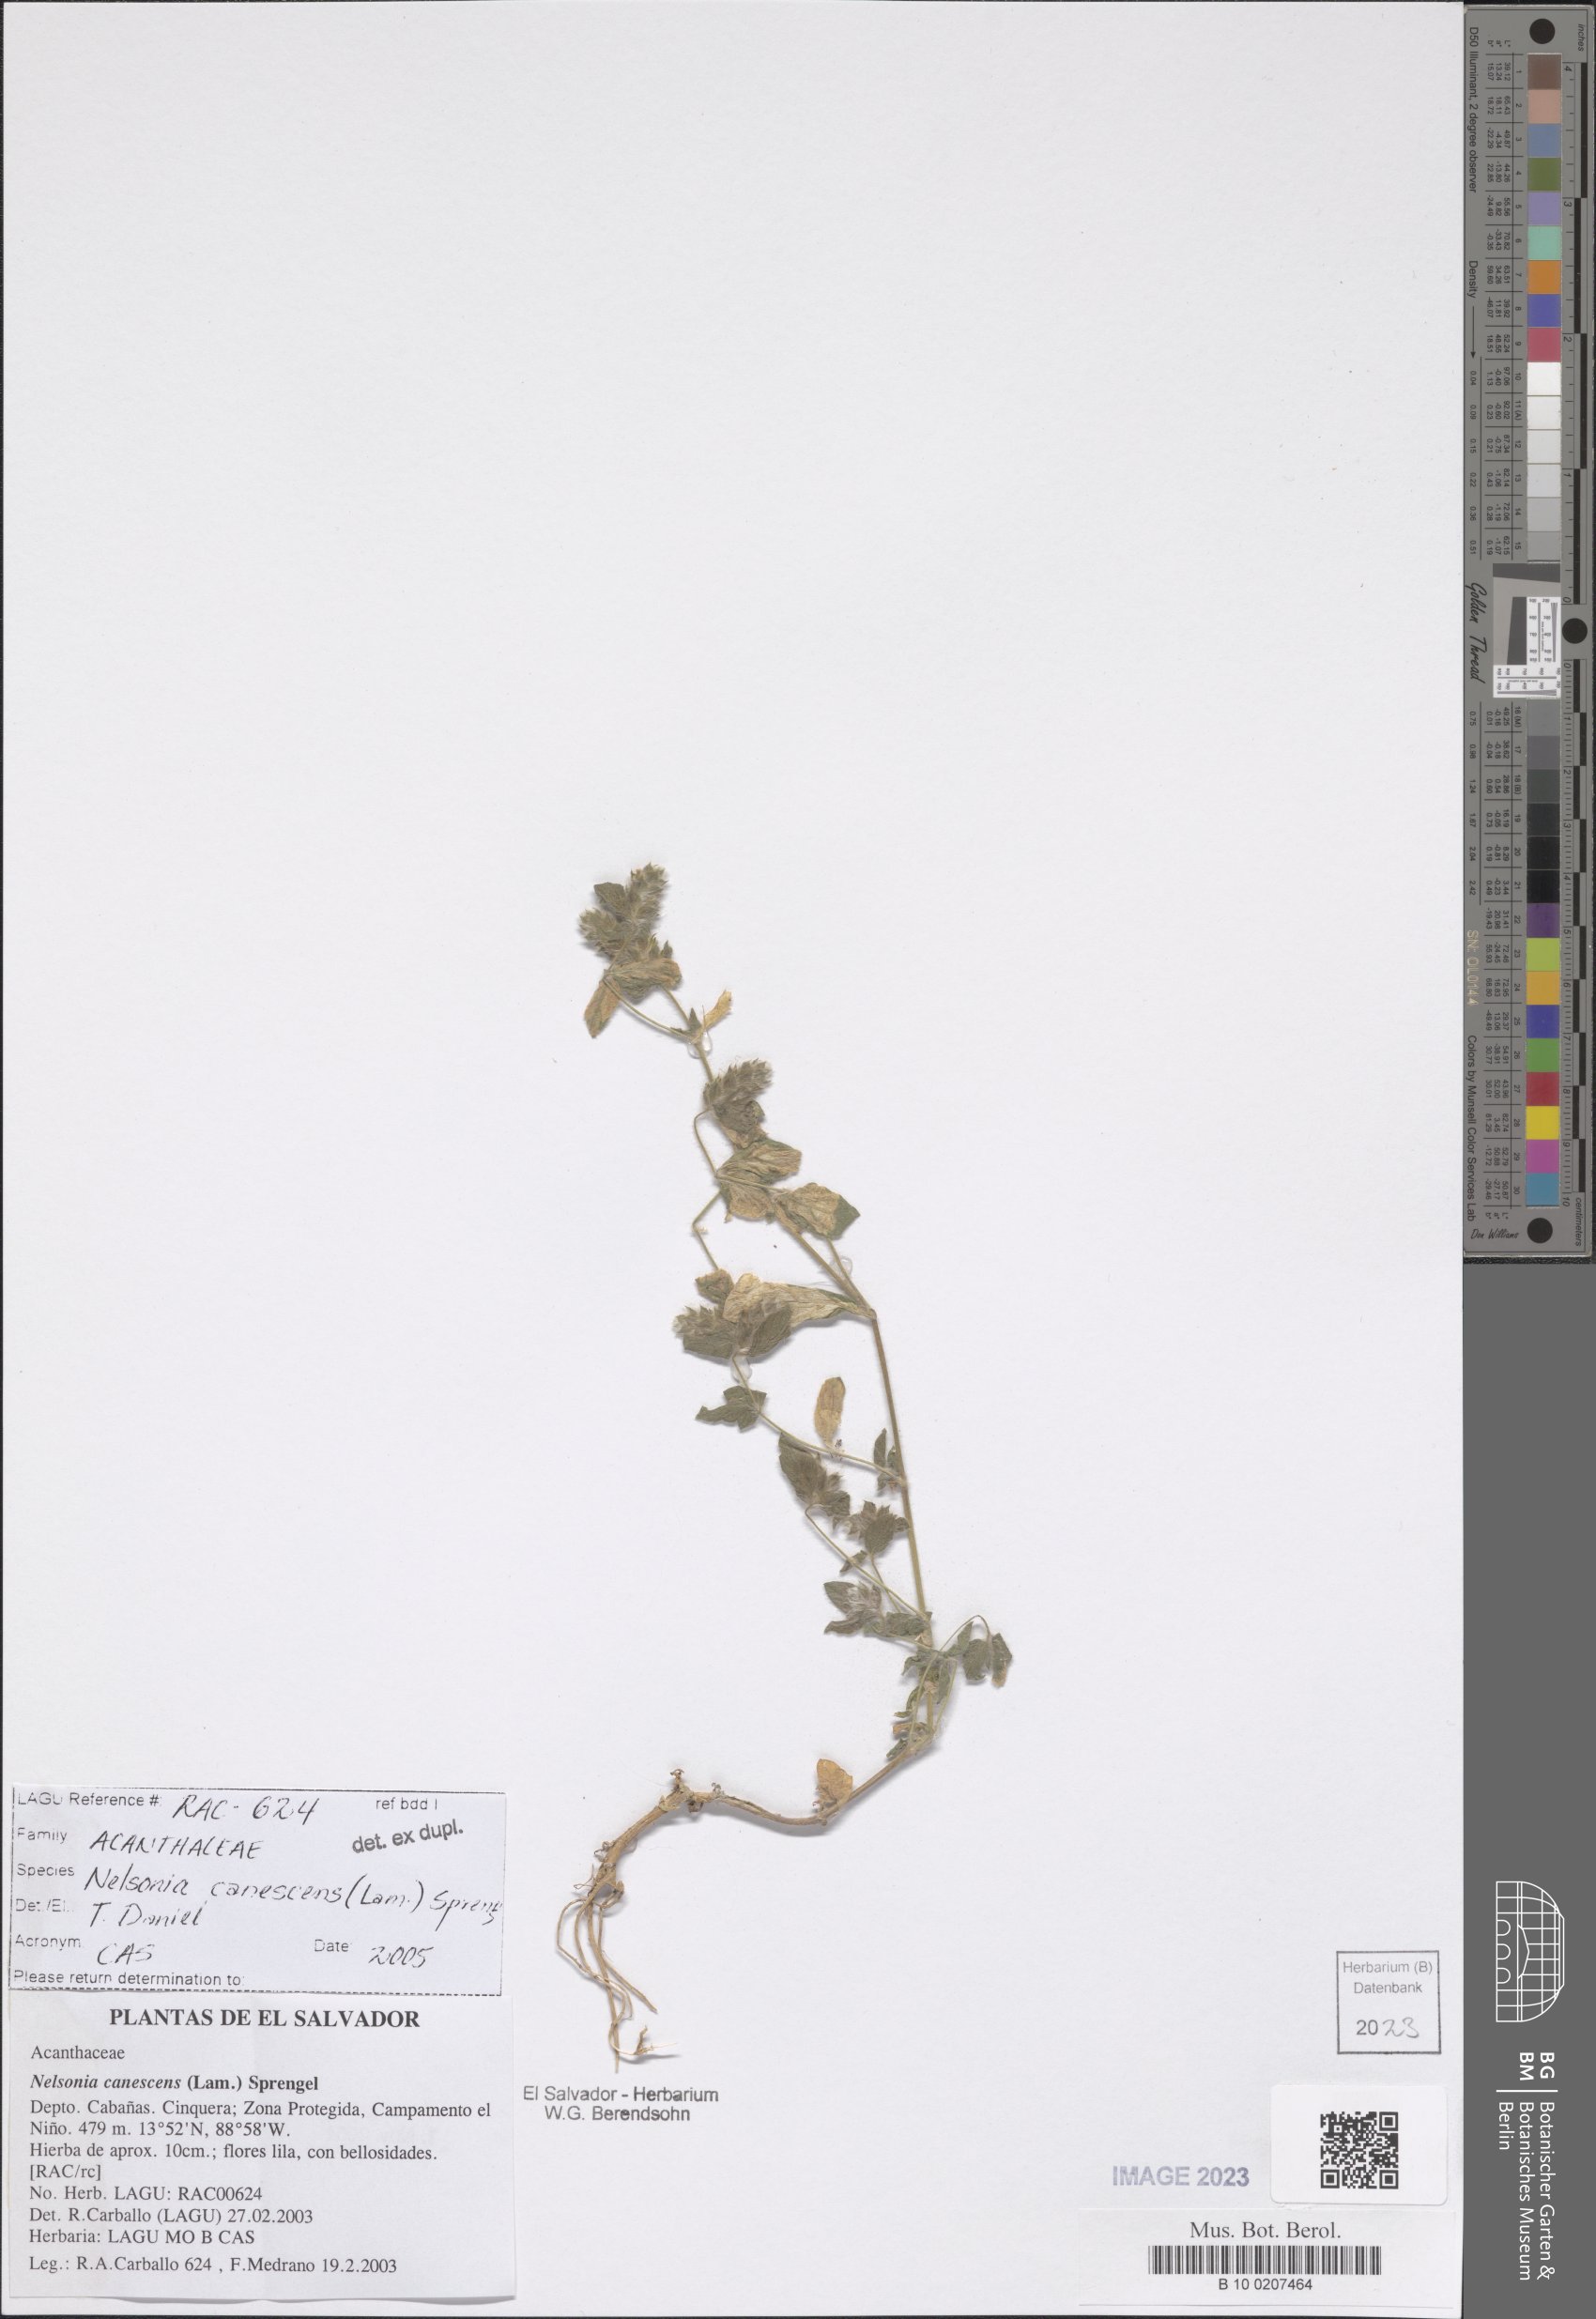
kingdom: Plantae
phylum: Tracheophyta
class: Magnoliopsida
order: Lamiales
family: Acanthaceae
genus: Nelsonia
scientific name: Nelsonia canescens
